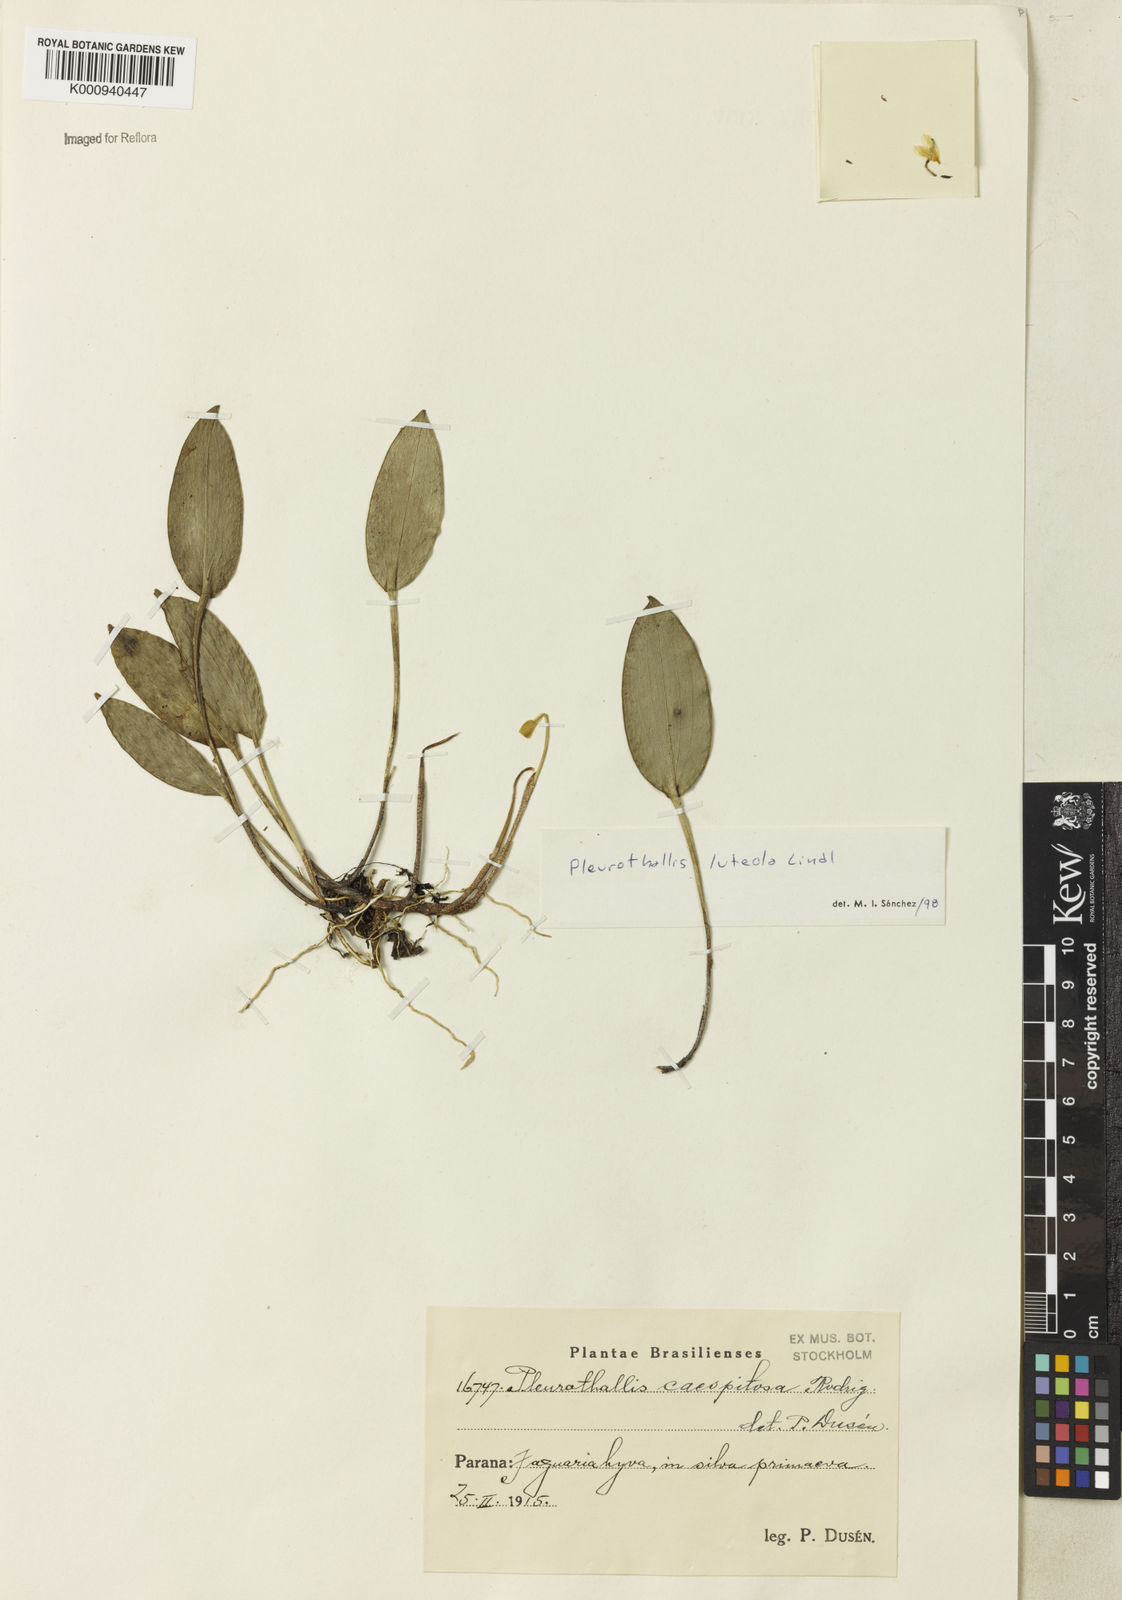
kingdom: Plantae
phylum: Tracheophyta
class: Liliopsida
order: Asparagales
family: Orchidaceae
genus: Acianthera
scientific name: Acianthera luteola
